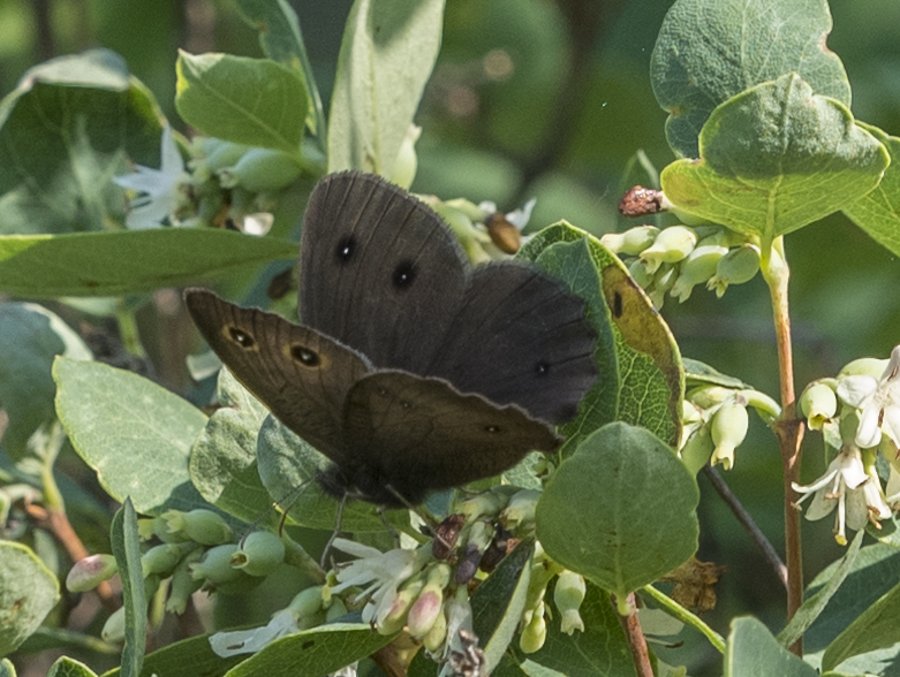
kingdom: Animalia
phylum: Arthropoda
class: Insecta
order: Lepidoptera
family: Nymphalidae
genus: Cercyonis
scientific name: Cercyonis pegala
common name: Common Wood-Nymph
